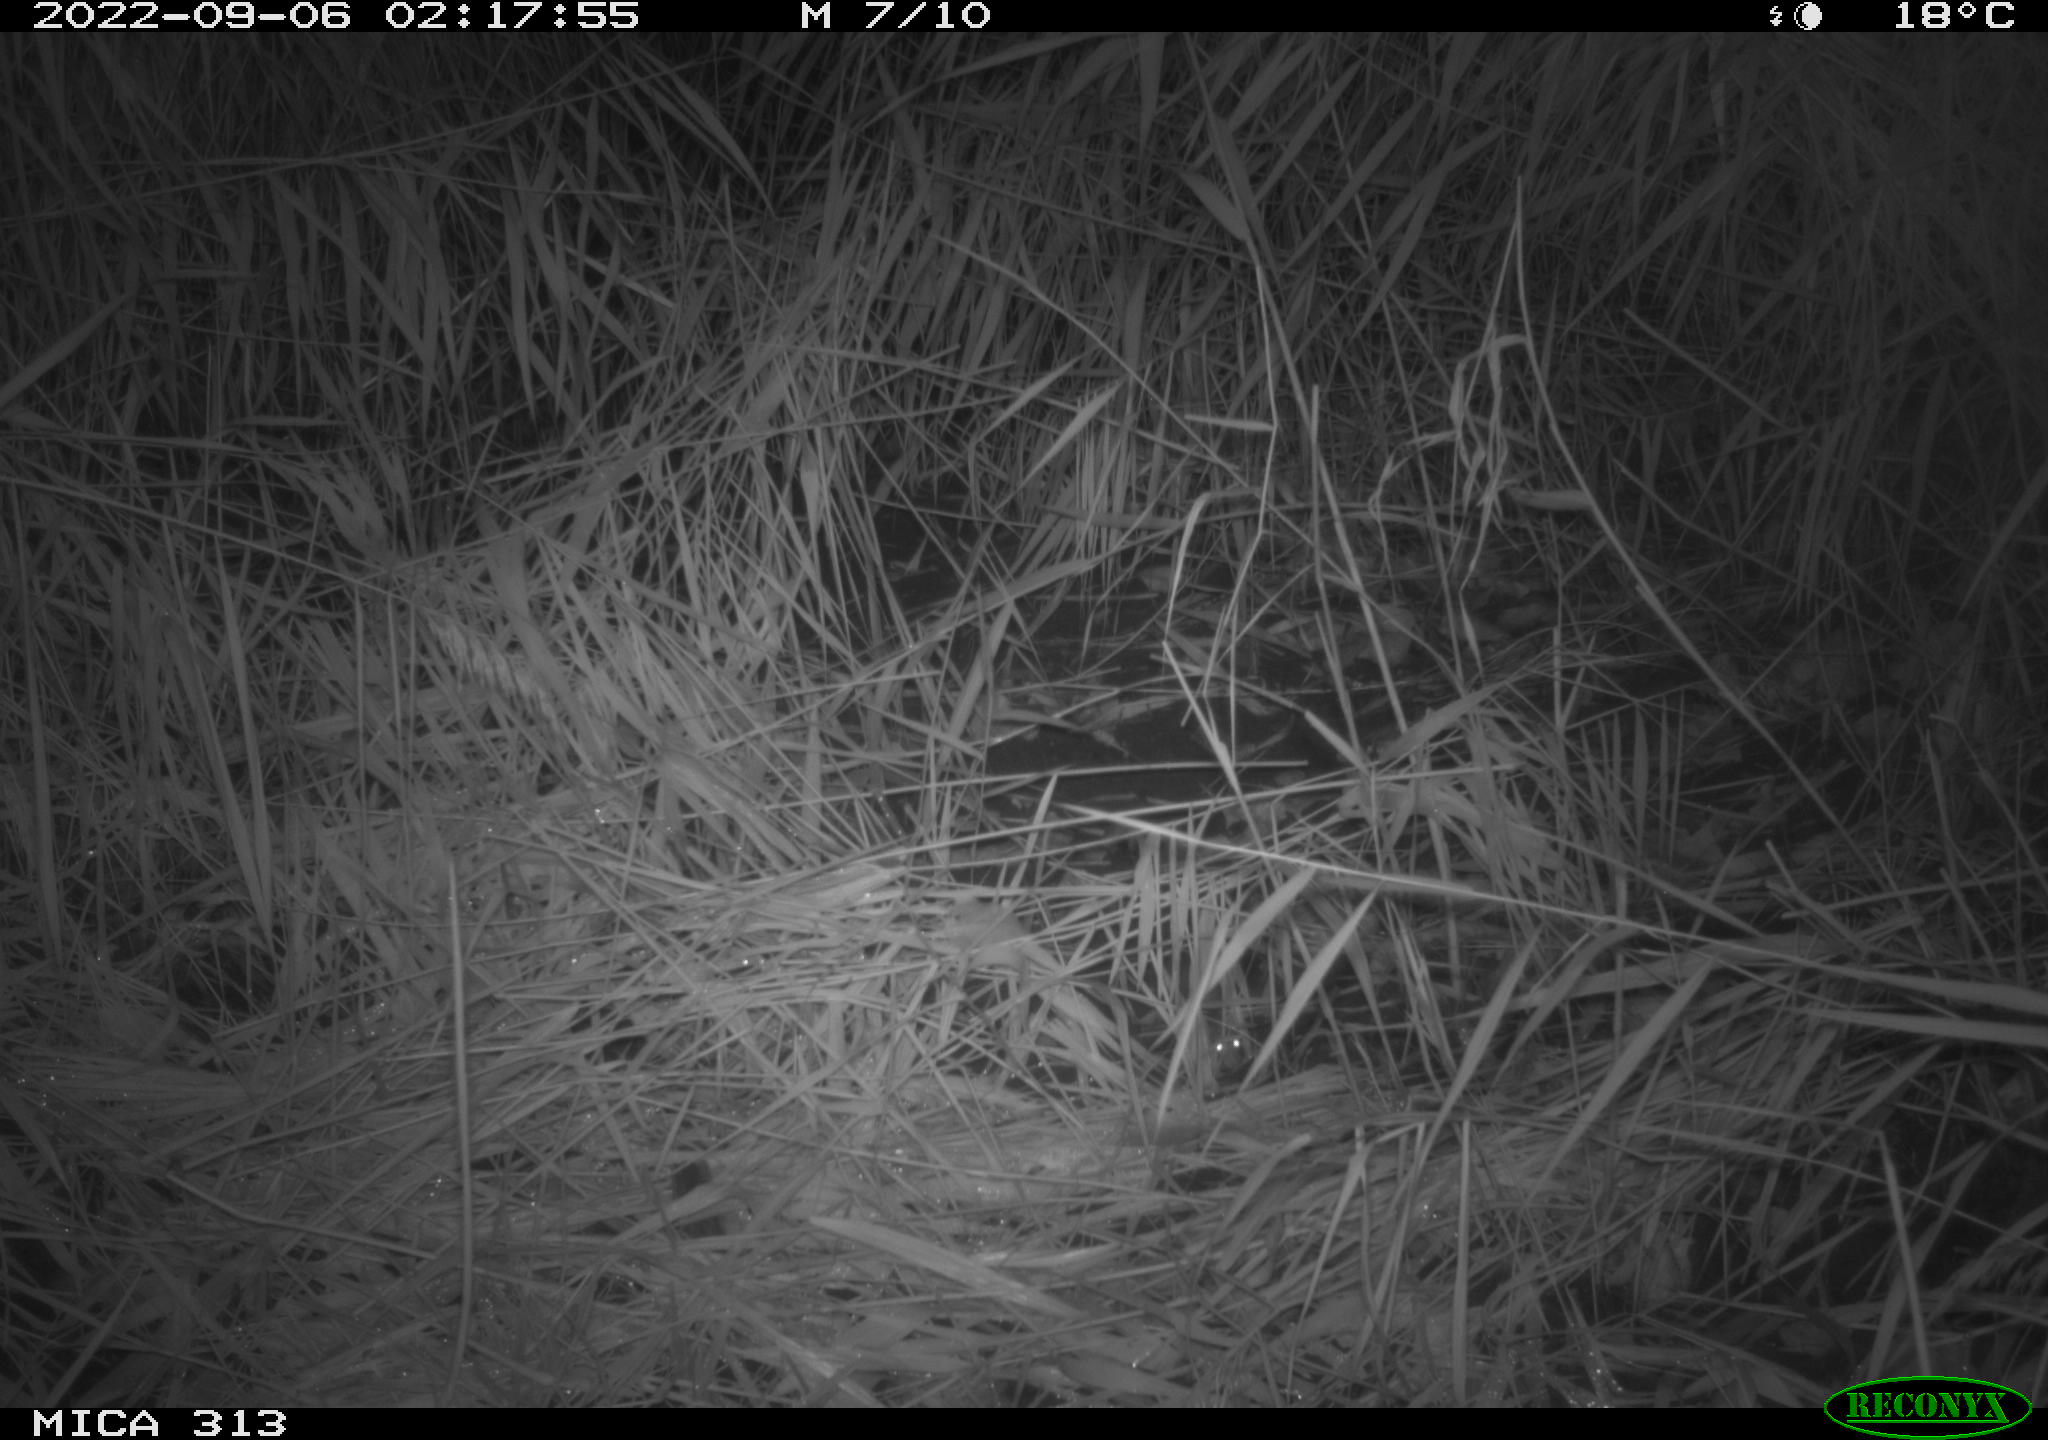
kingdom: Animalia
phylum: Chordata
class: Mammalia
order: Rodentia
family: Muridae
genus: Rattus
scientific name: Rattus norvegicus
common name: Brown rat
